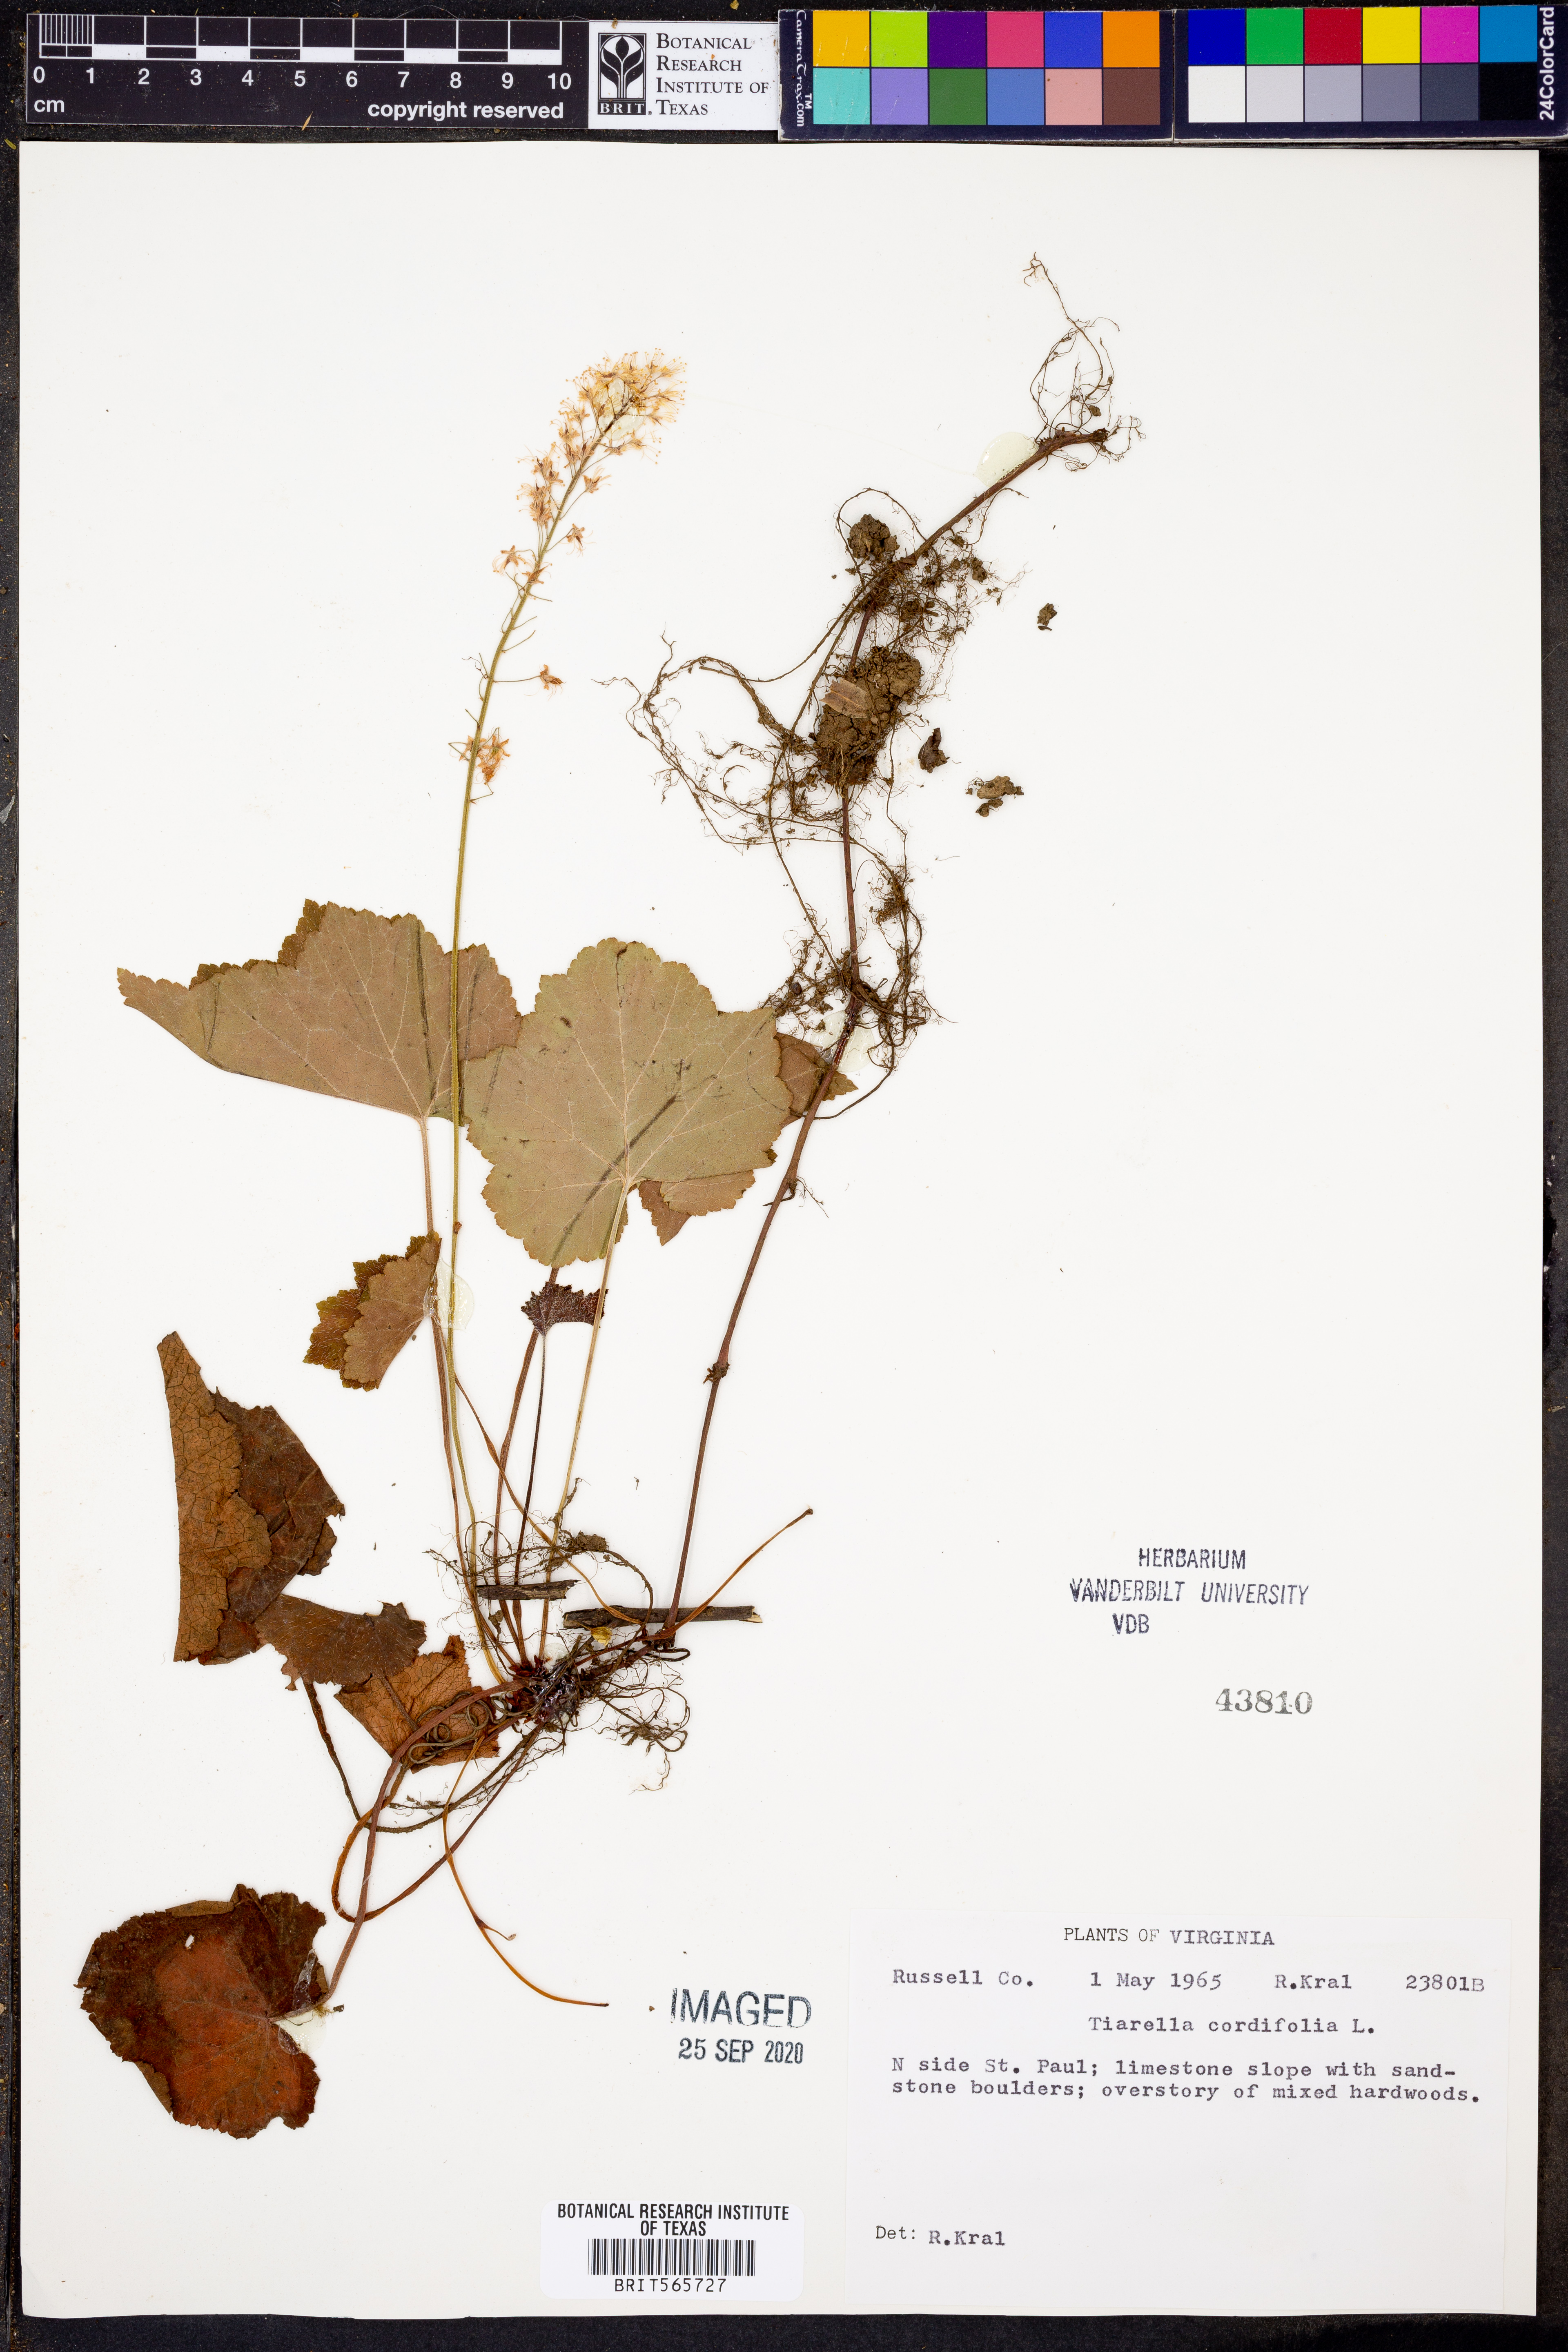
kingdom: Plantae
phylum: Tracheophyta
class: Magnoliopsida
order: Saxifragales
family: Saxifragaceae
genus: Tiarella
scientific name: Tiarella cordifolia
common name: Foamflower
